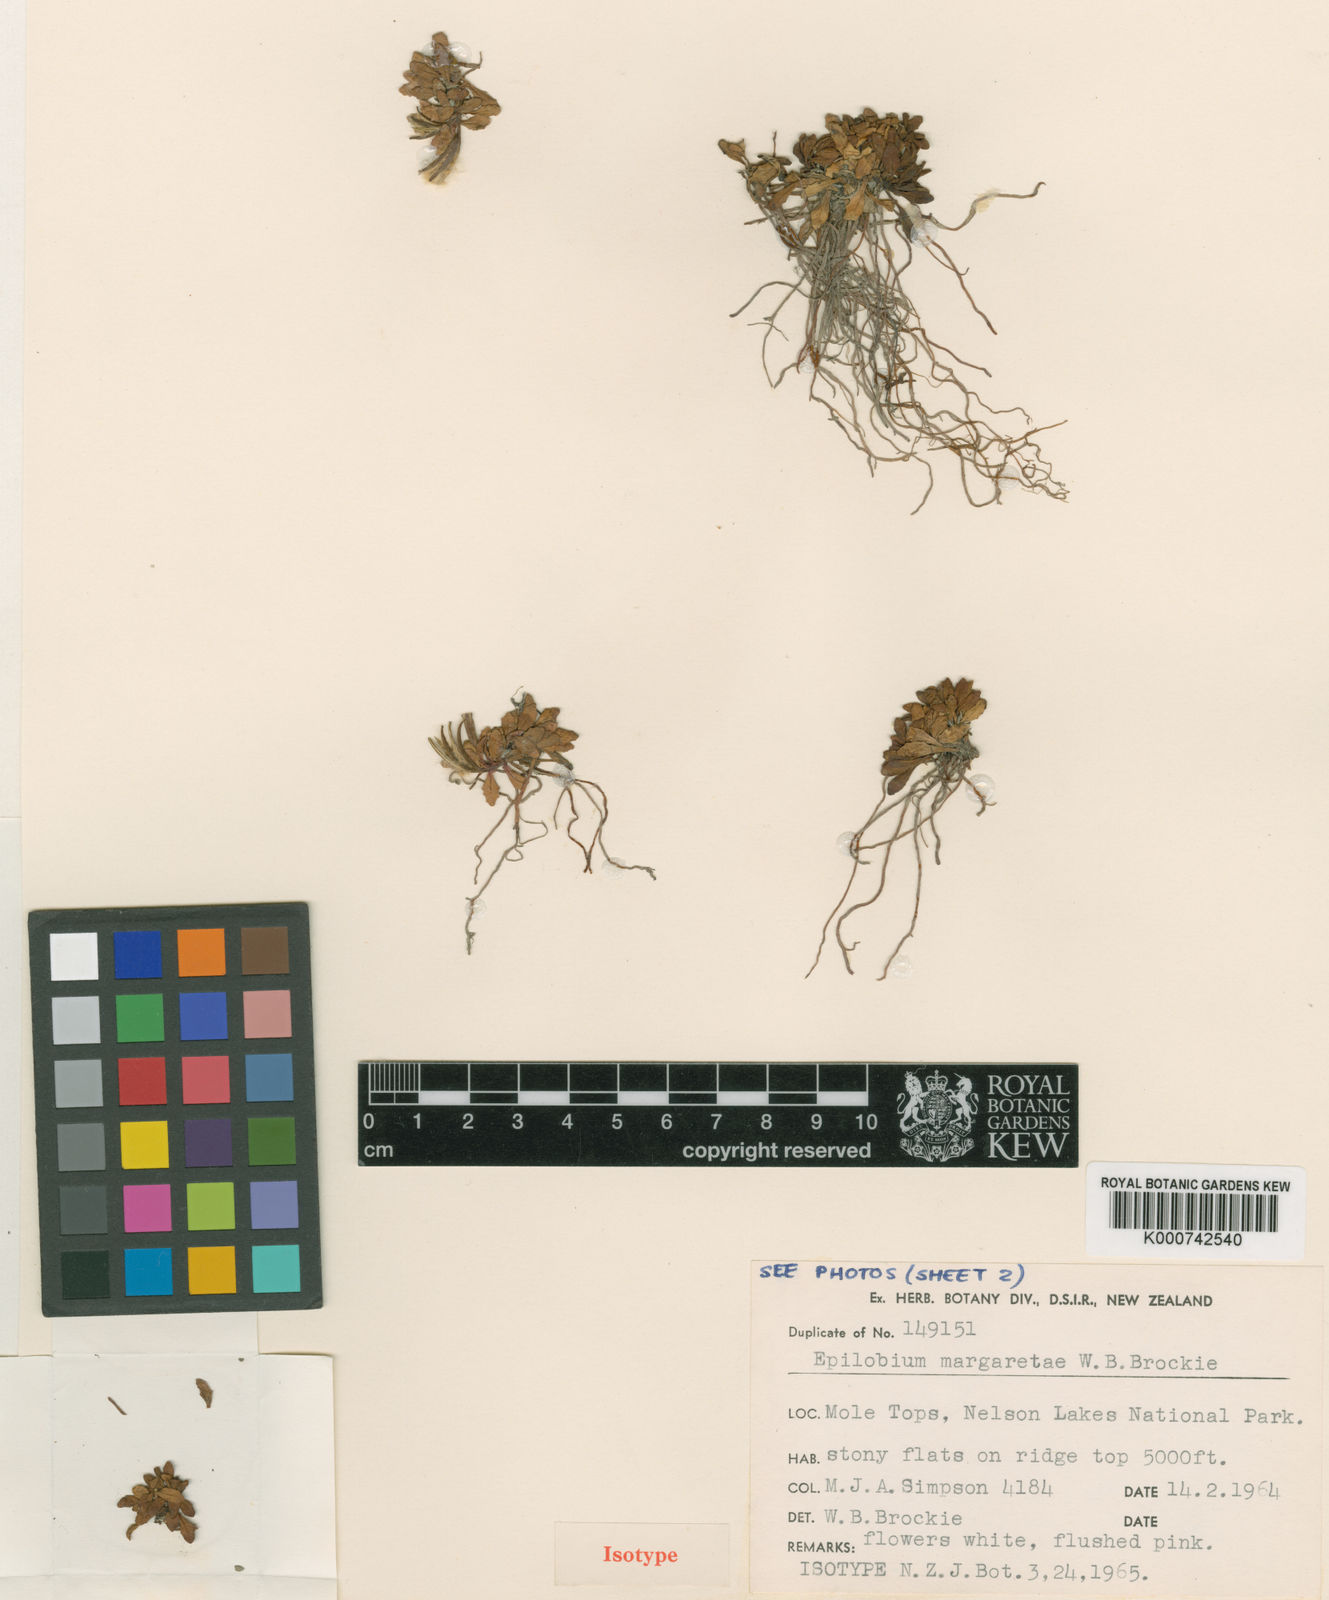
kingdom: Plantae
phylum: Tracheophyta
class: Magnoliopsida
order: Myrtales
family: Onagraceae
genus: Epilobium
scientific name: Epilobium margaretiae
